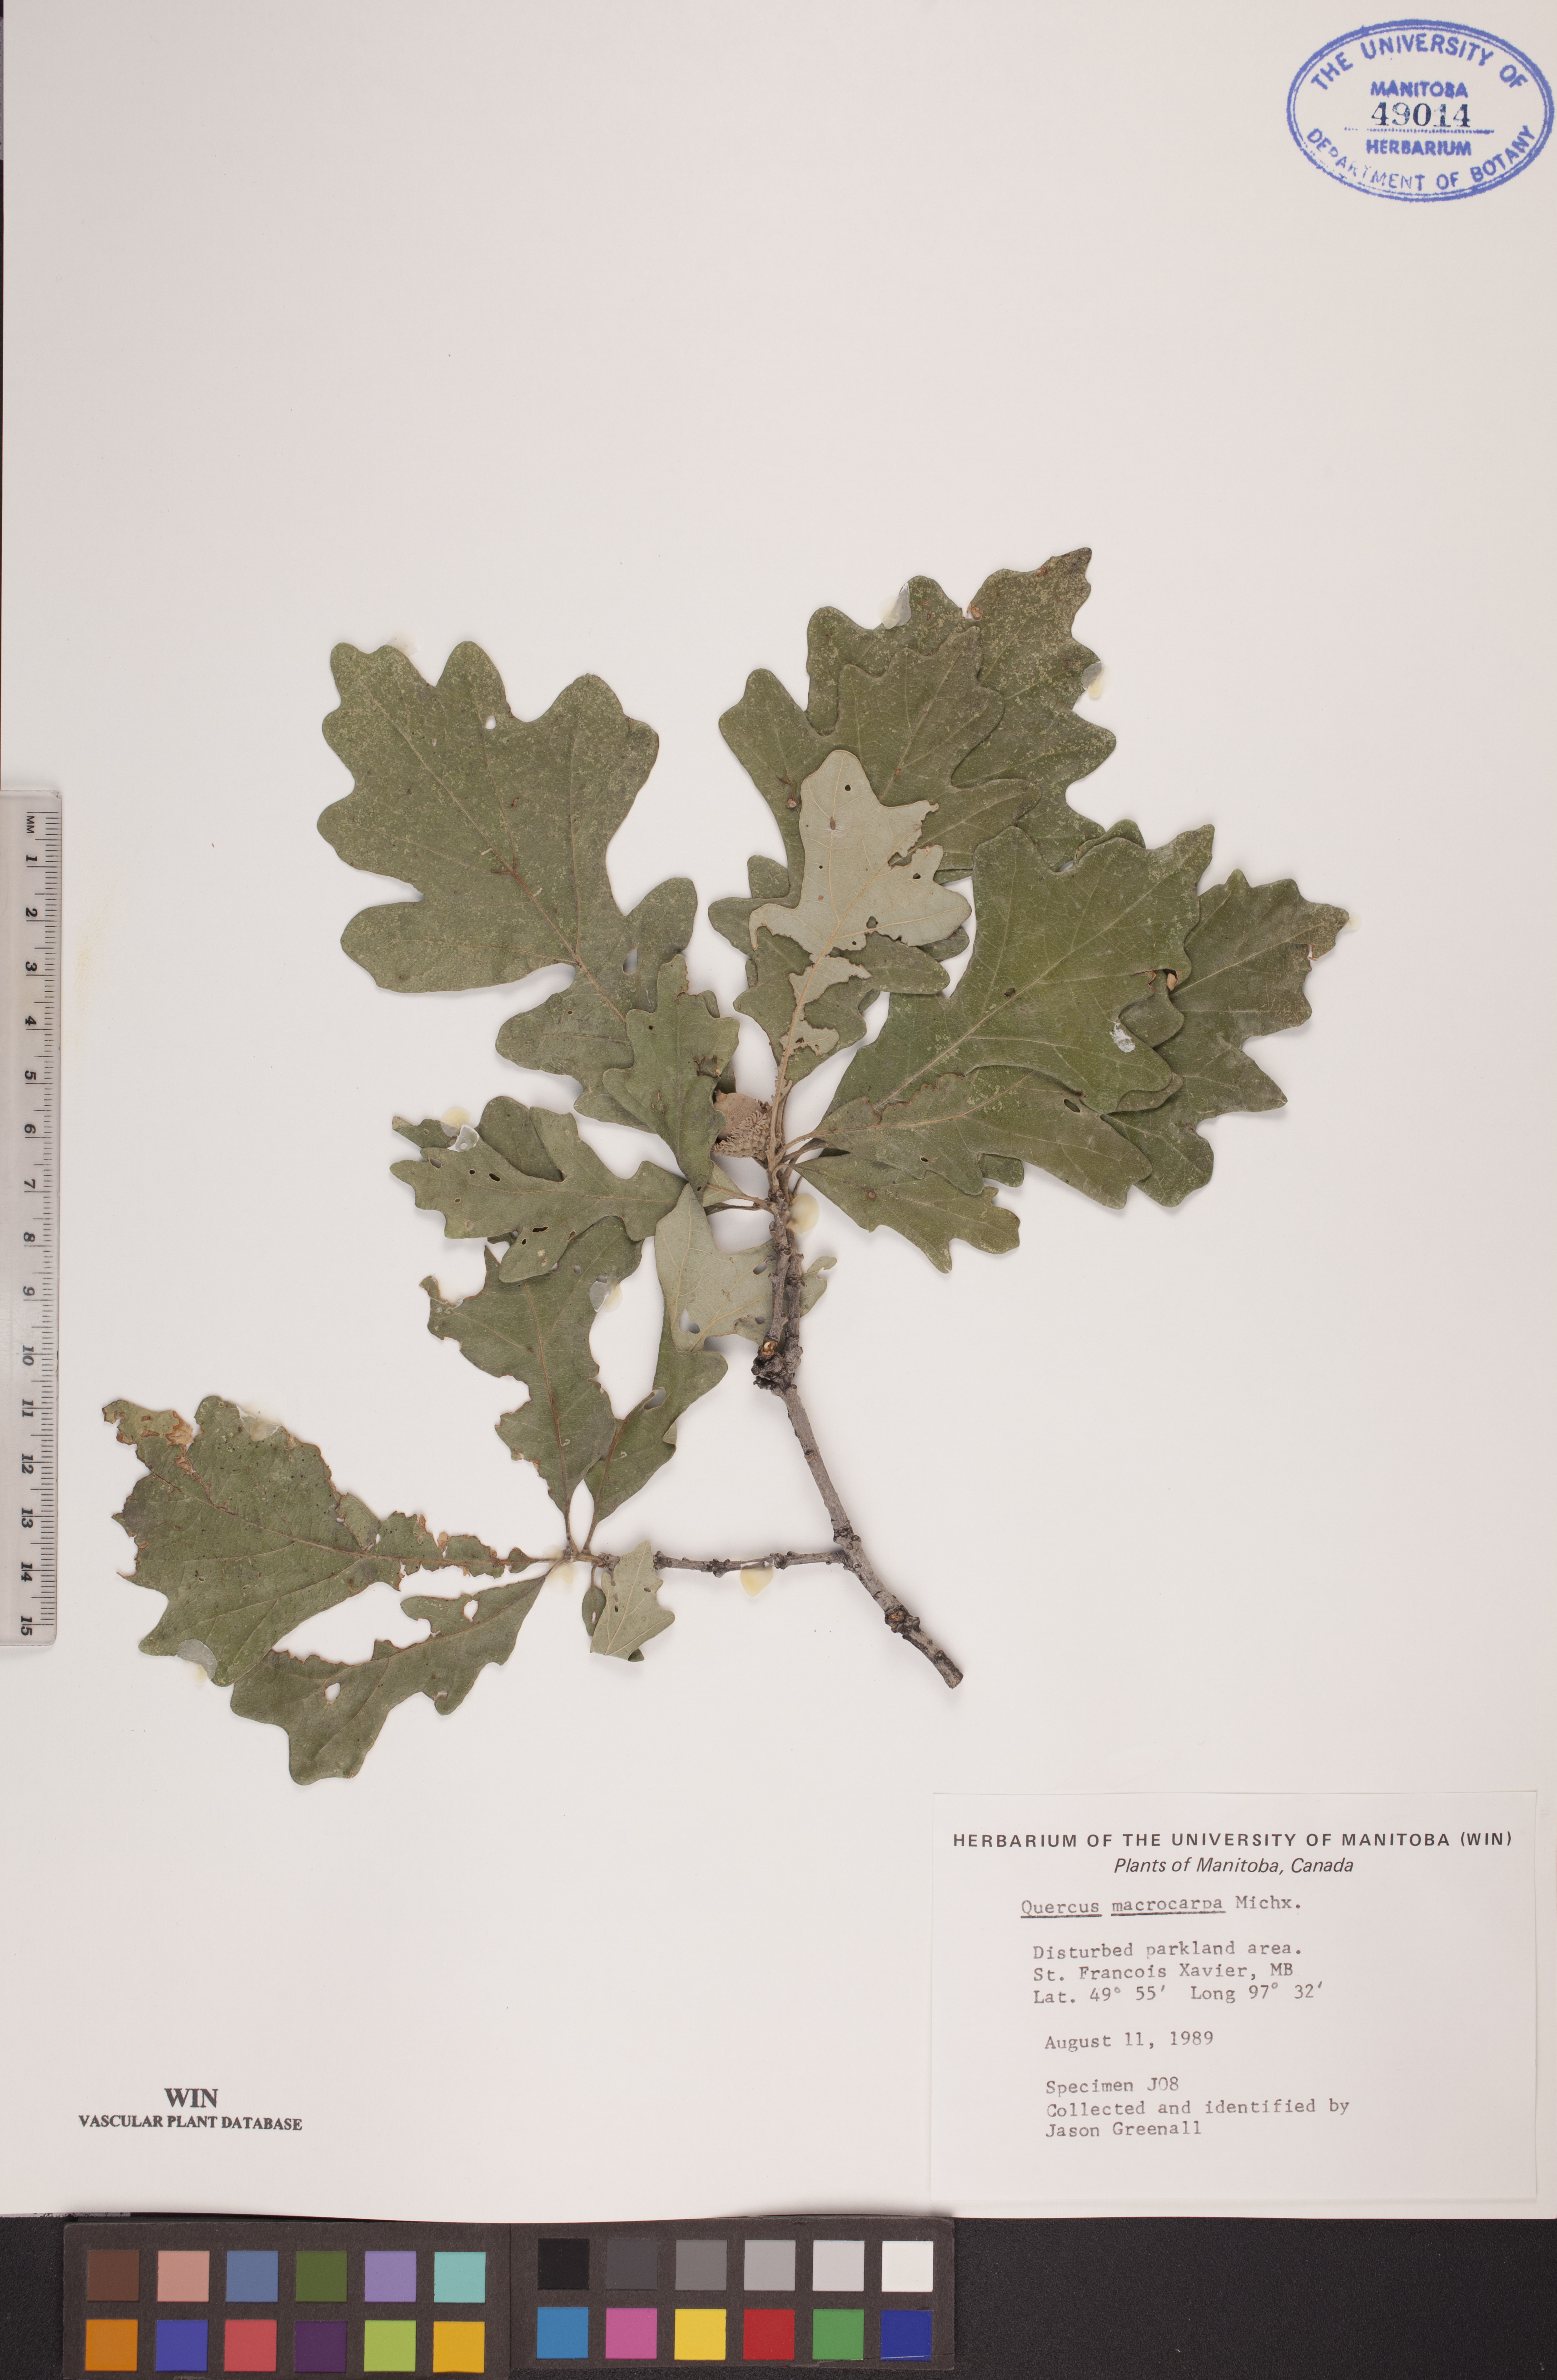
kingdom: Plantae
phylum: Tracheophyta
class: Magnoliopsida
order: Fagales
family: Fagaceae
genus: Quercus
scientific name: Quercus macrocarpa
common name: Bur oak
